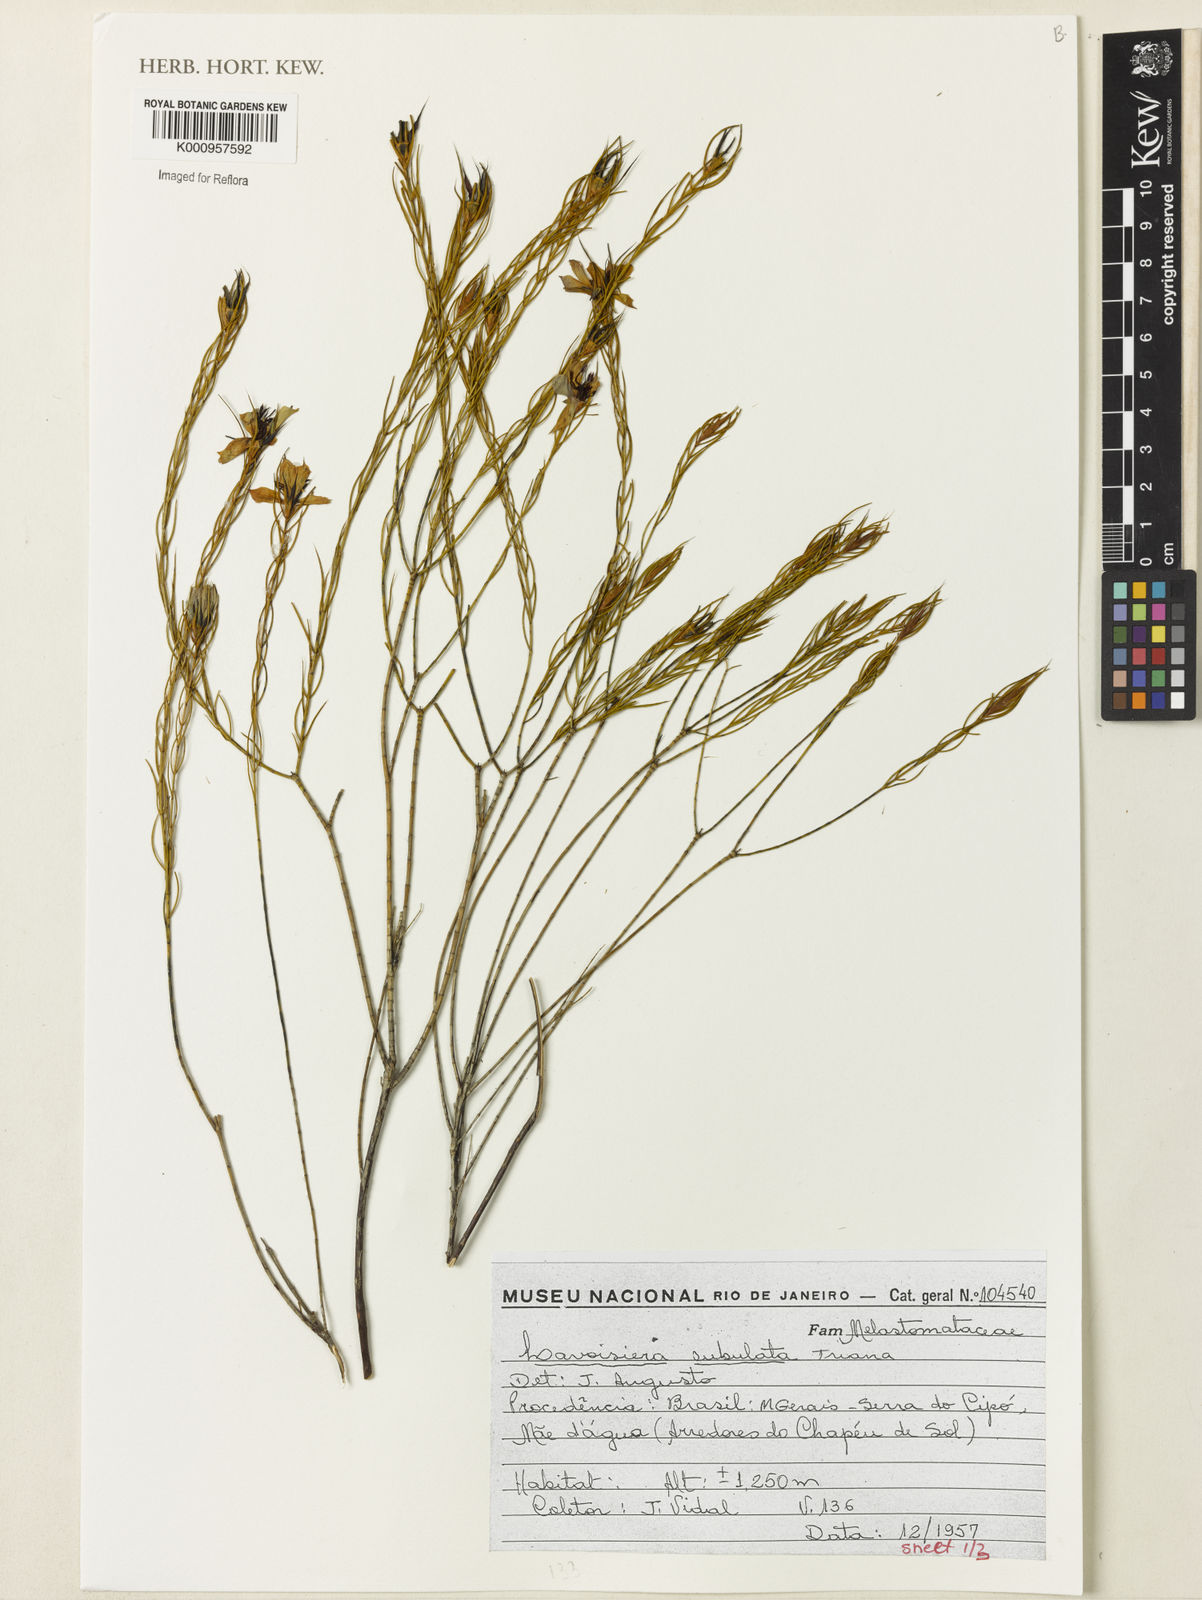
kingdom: Plantae
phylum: Tracheophyta
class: Magnoliopsida
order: Myrtales
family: Melastomataceae
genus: Microlicia
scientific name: Microlicia subulata
